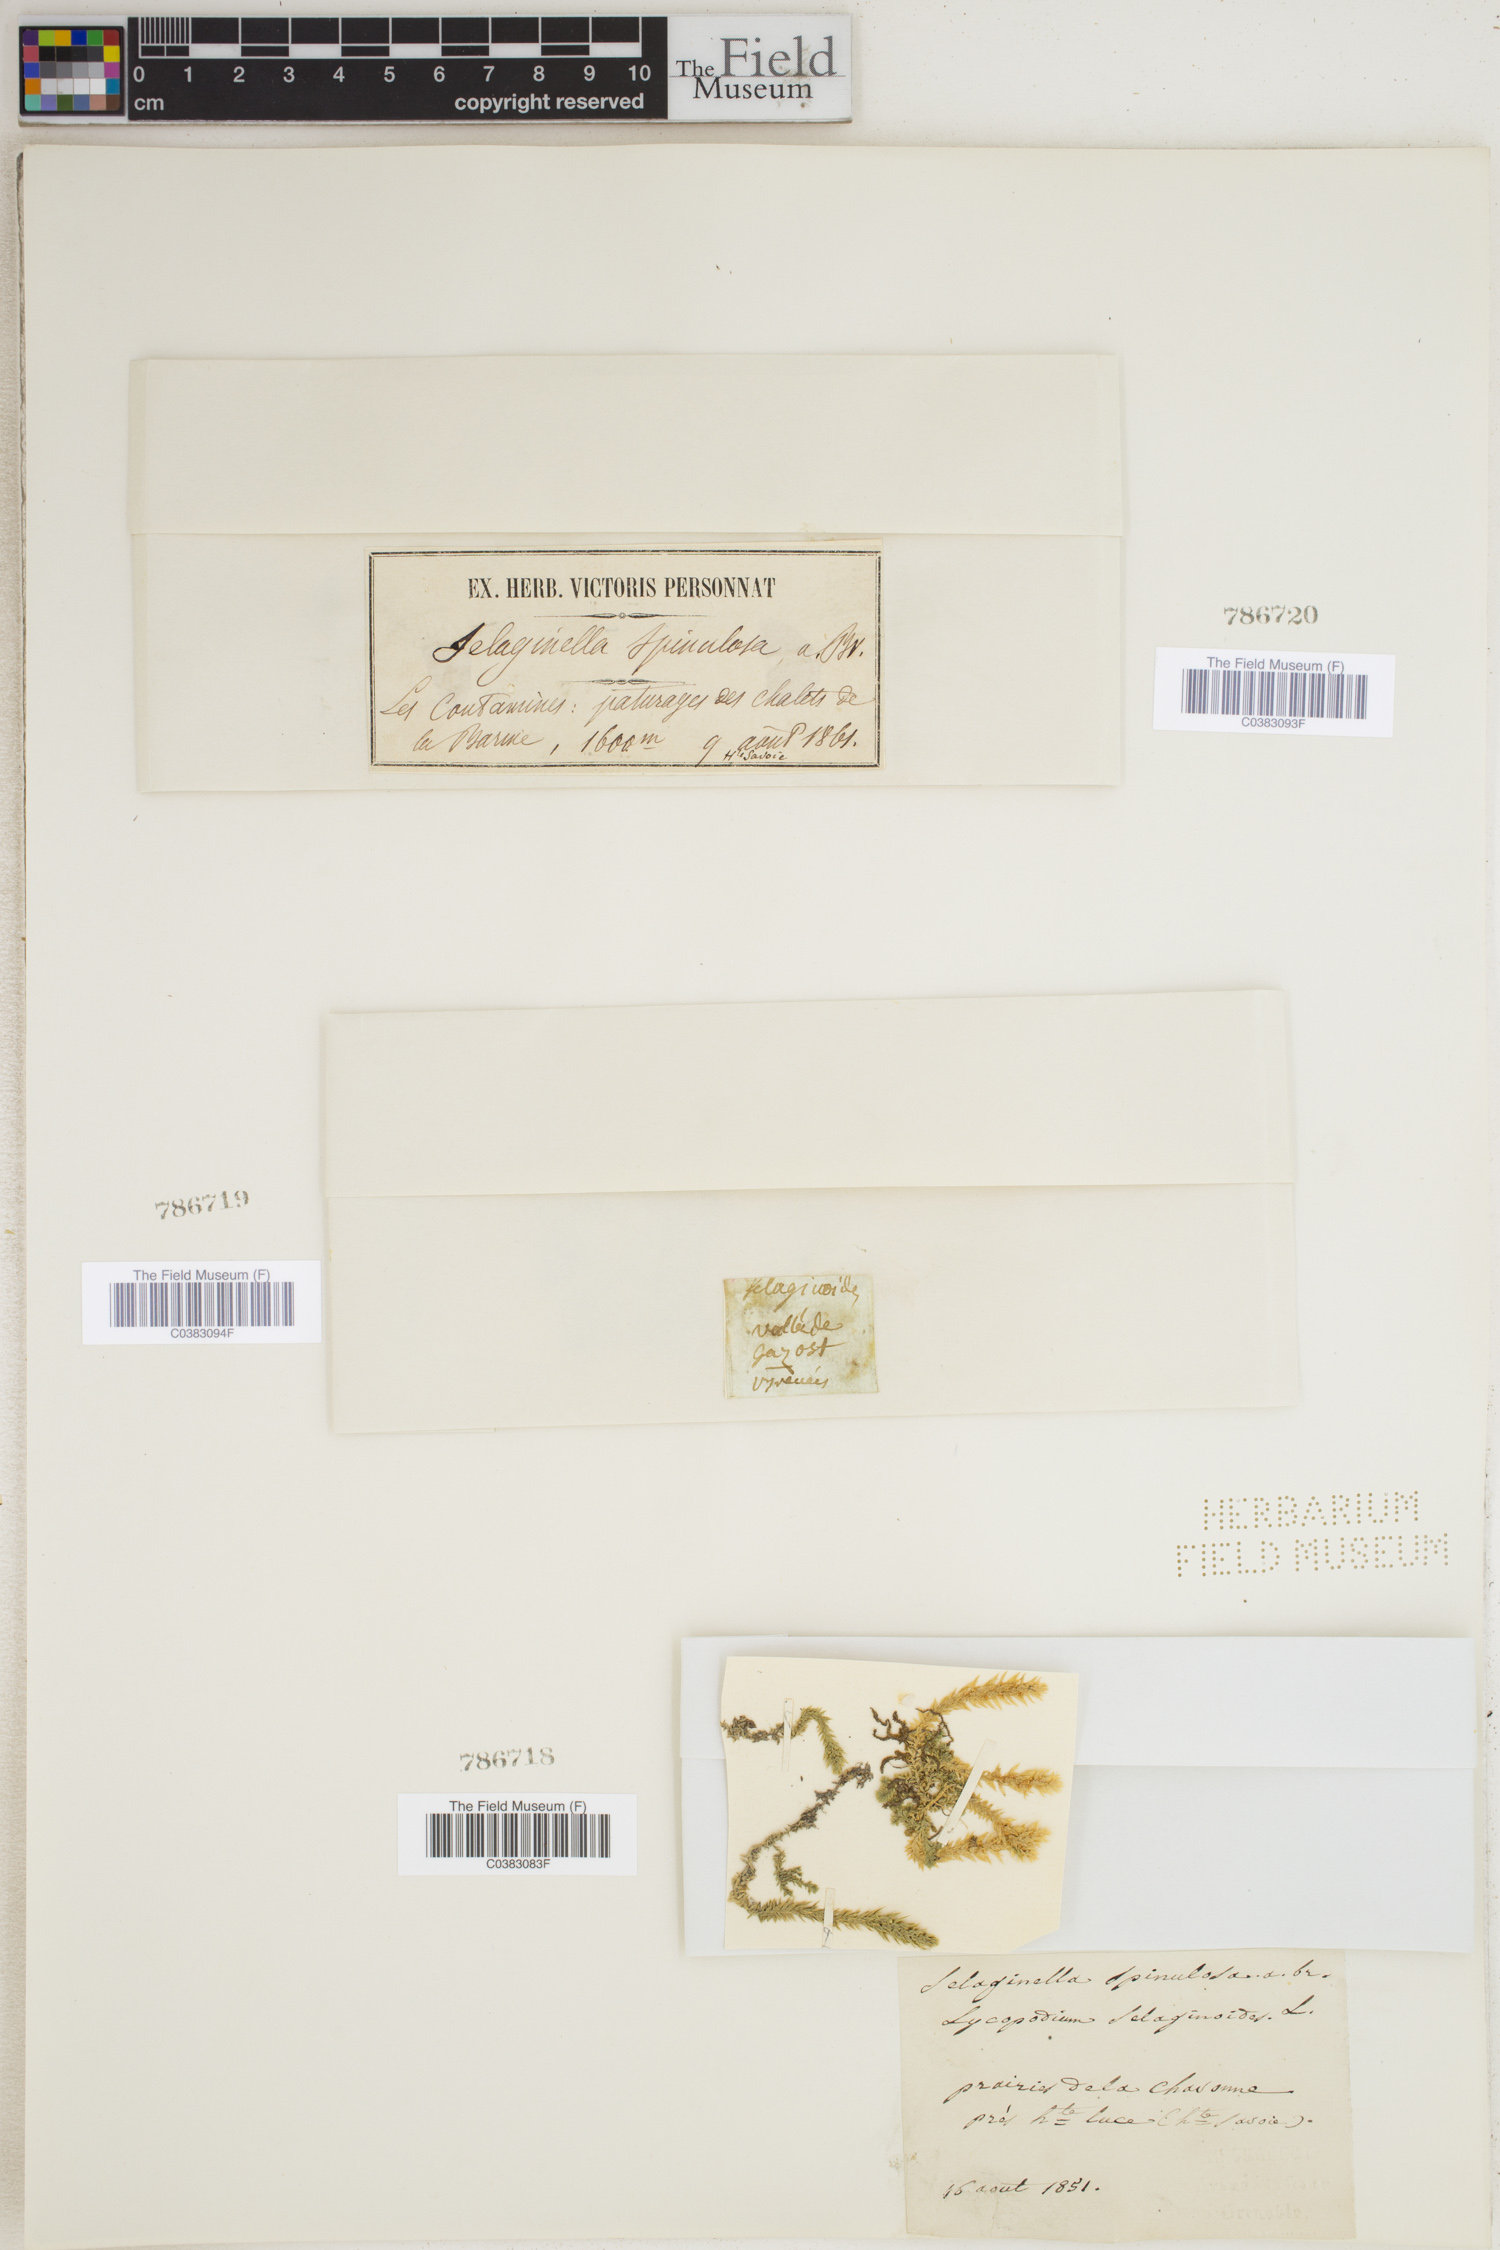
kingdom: Plantae
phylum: Tracheophyta
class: Lycopodiopsida
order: Selaginellales
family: Selaginellaceae
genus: Selaginella
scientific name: Selaginella selaginoides
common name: Prickly mountain-moss
